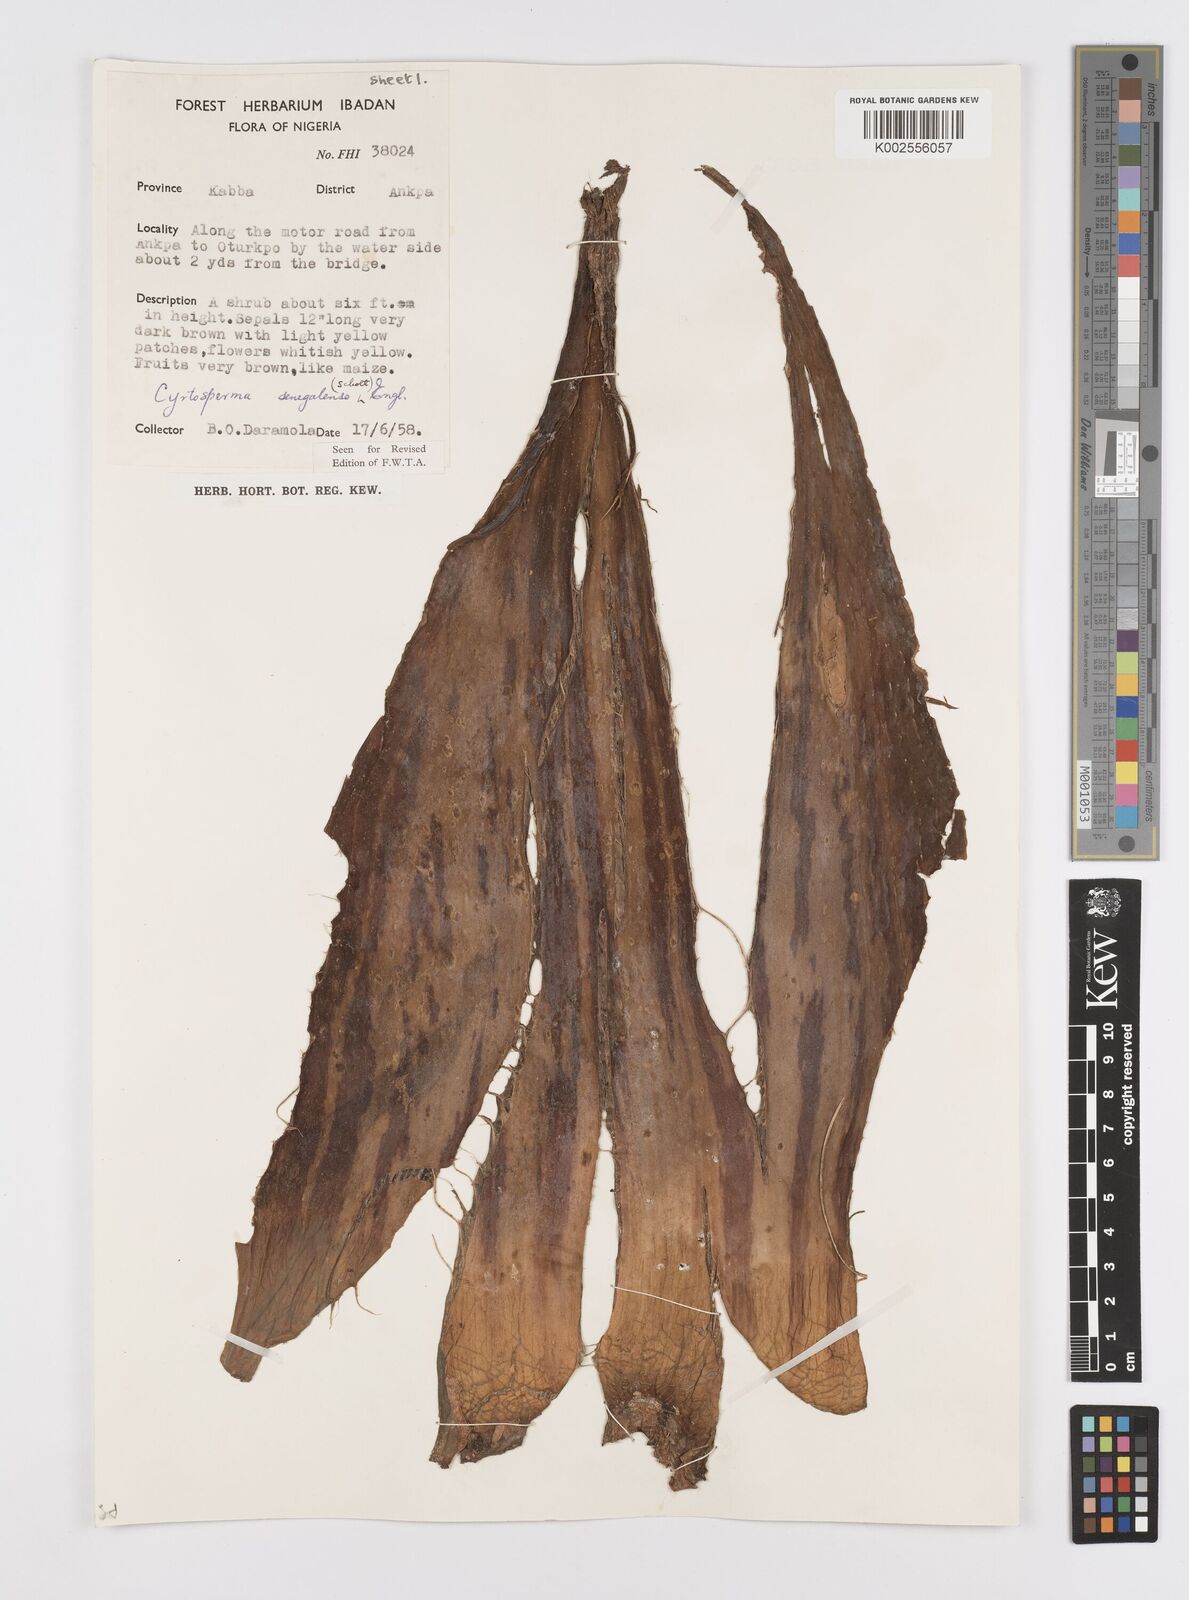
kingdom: Plantae
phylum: Tracheophyta
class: Liliopsida
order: Alismatales
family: Araceae
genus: Lasimorpha
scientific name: Lasimorpha senegalensis
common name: Swamp arum
